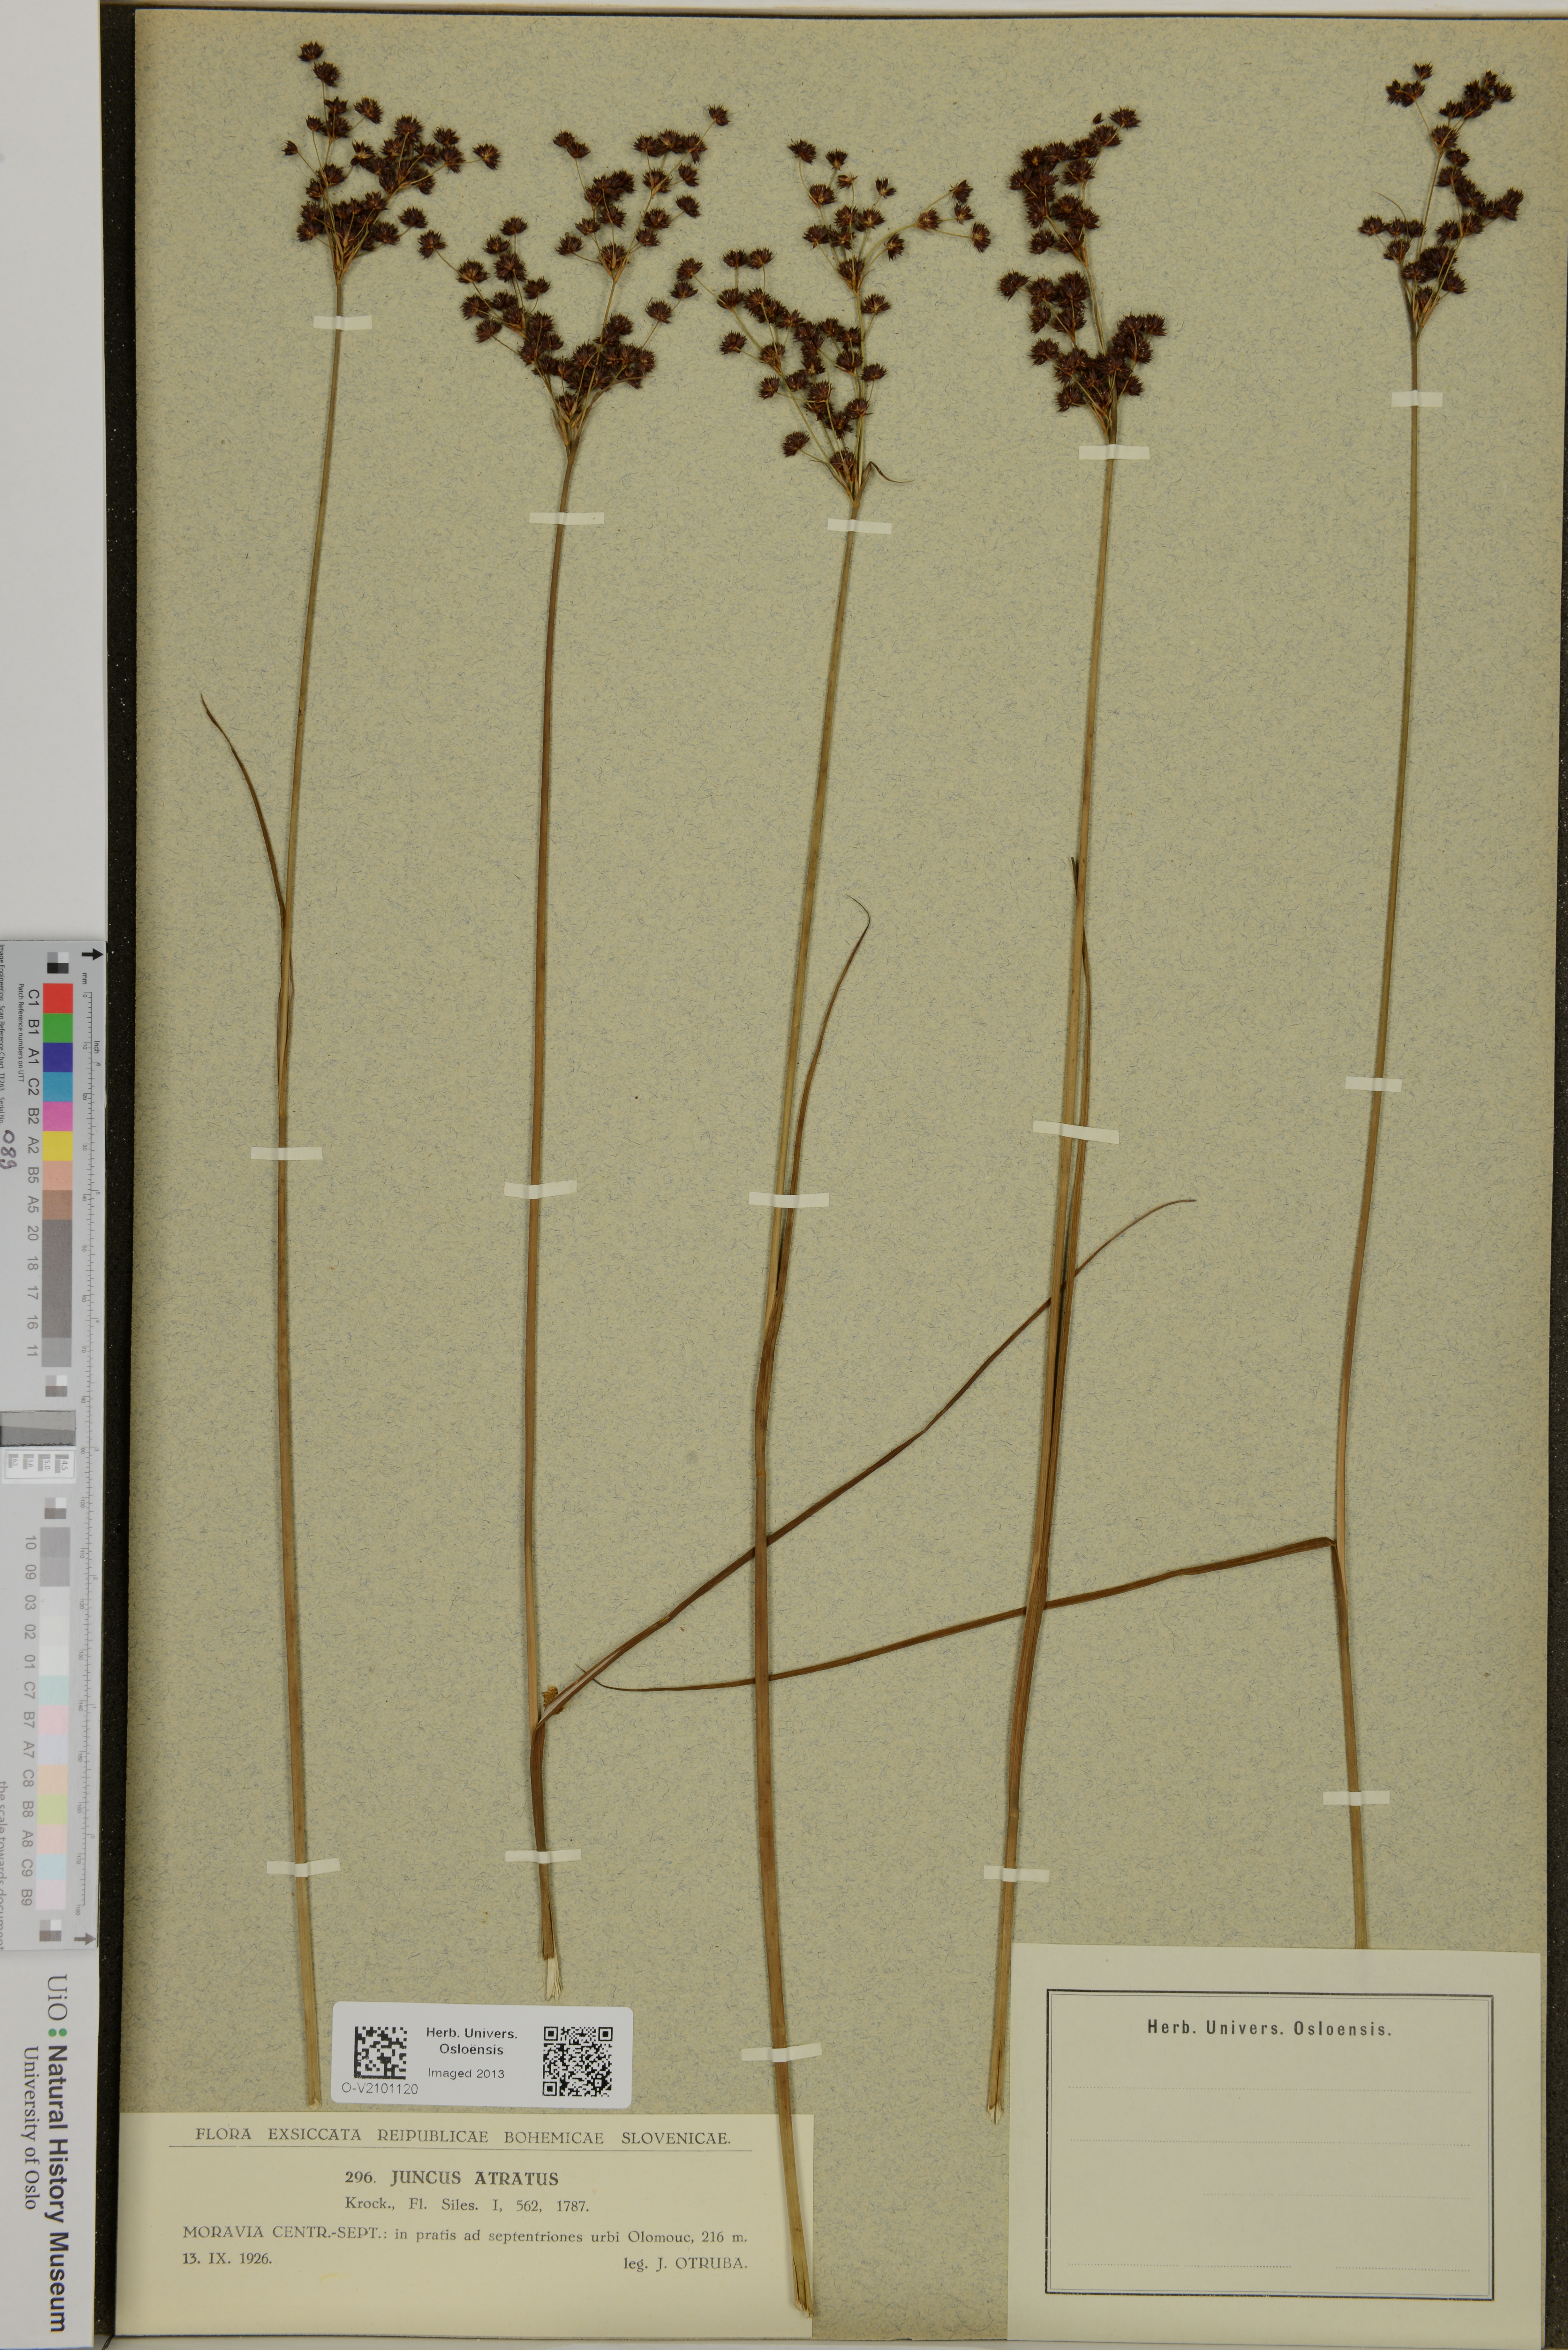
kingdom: Plantae
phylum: Tracheophyta
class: Liliopsida
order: Poales
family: Juncaceae
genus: Juncus
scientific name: Juncus atratus
